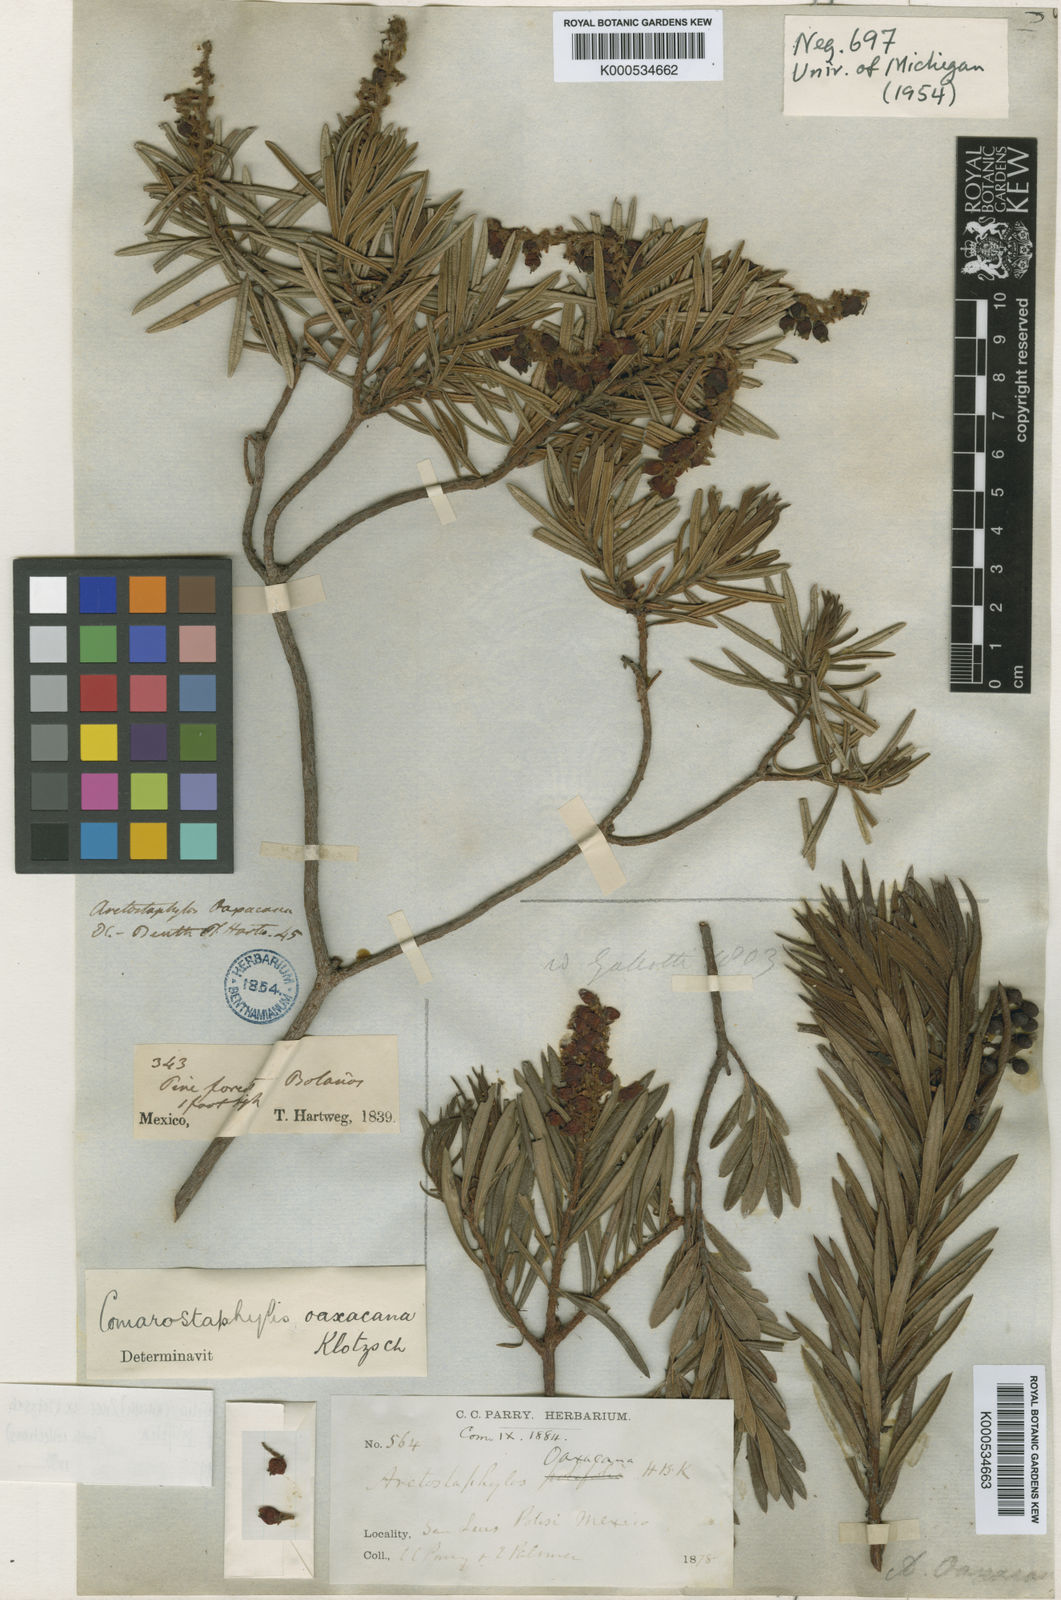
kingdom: Plantae
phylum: Tracheophyta
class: Magnoliopsida
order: Ericales
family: Ericaceae
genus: Comarostaphylis
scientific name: Comarostaphylis polifolia
